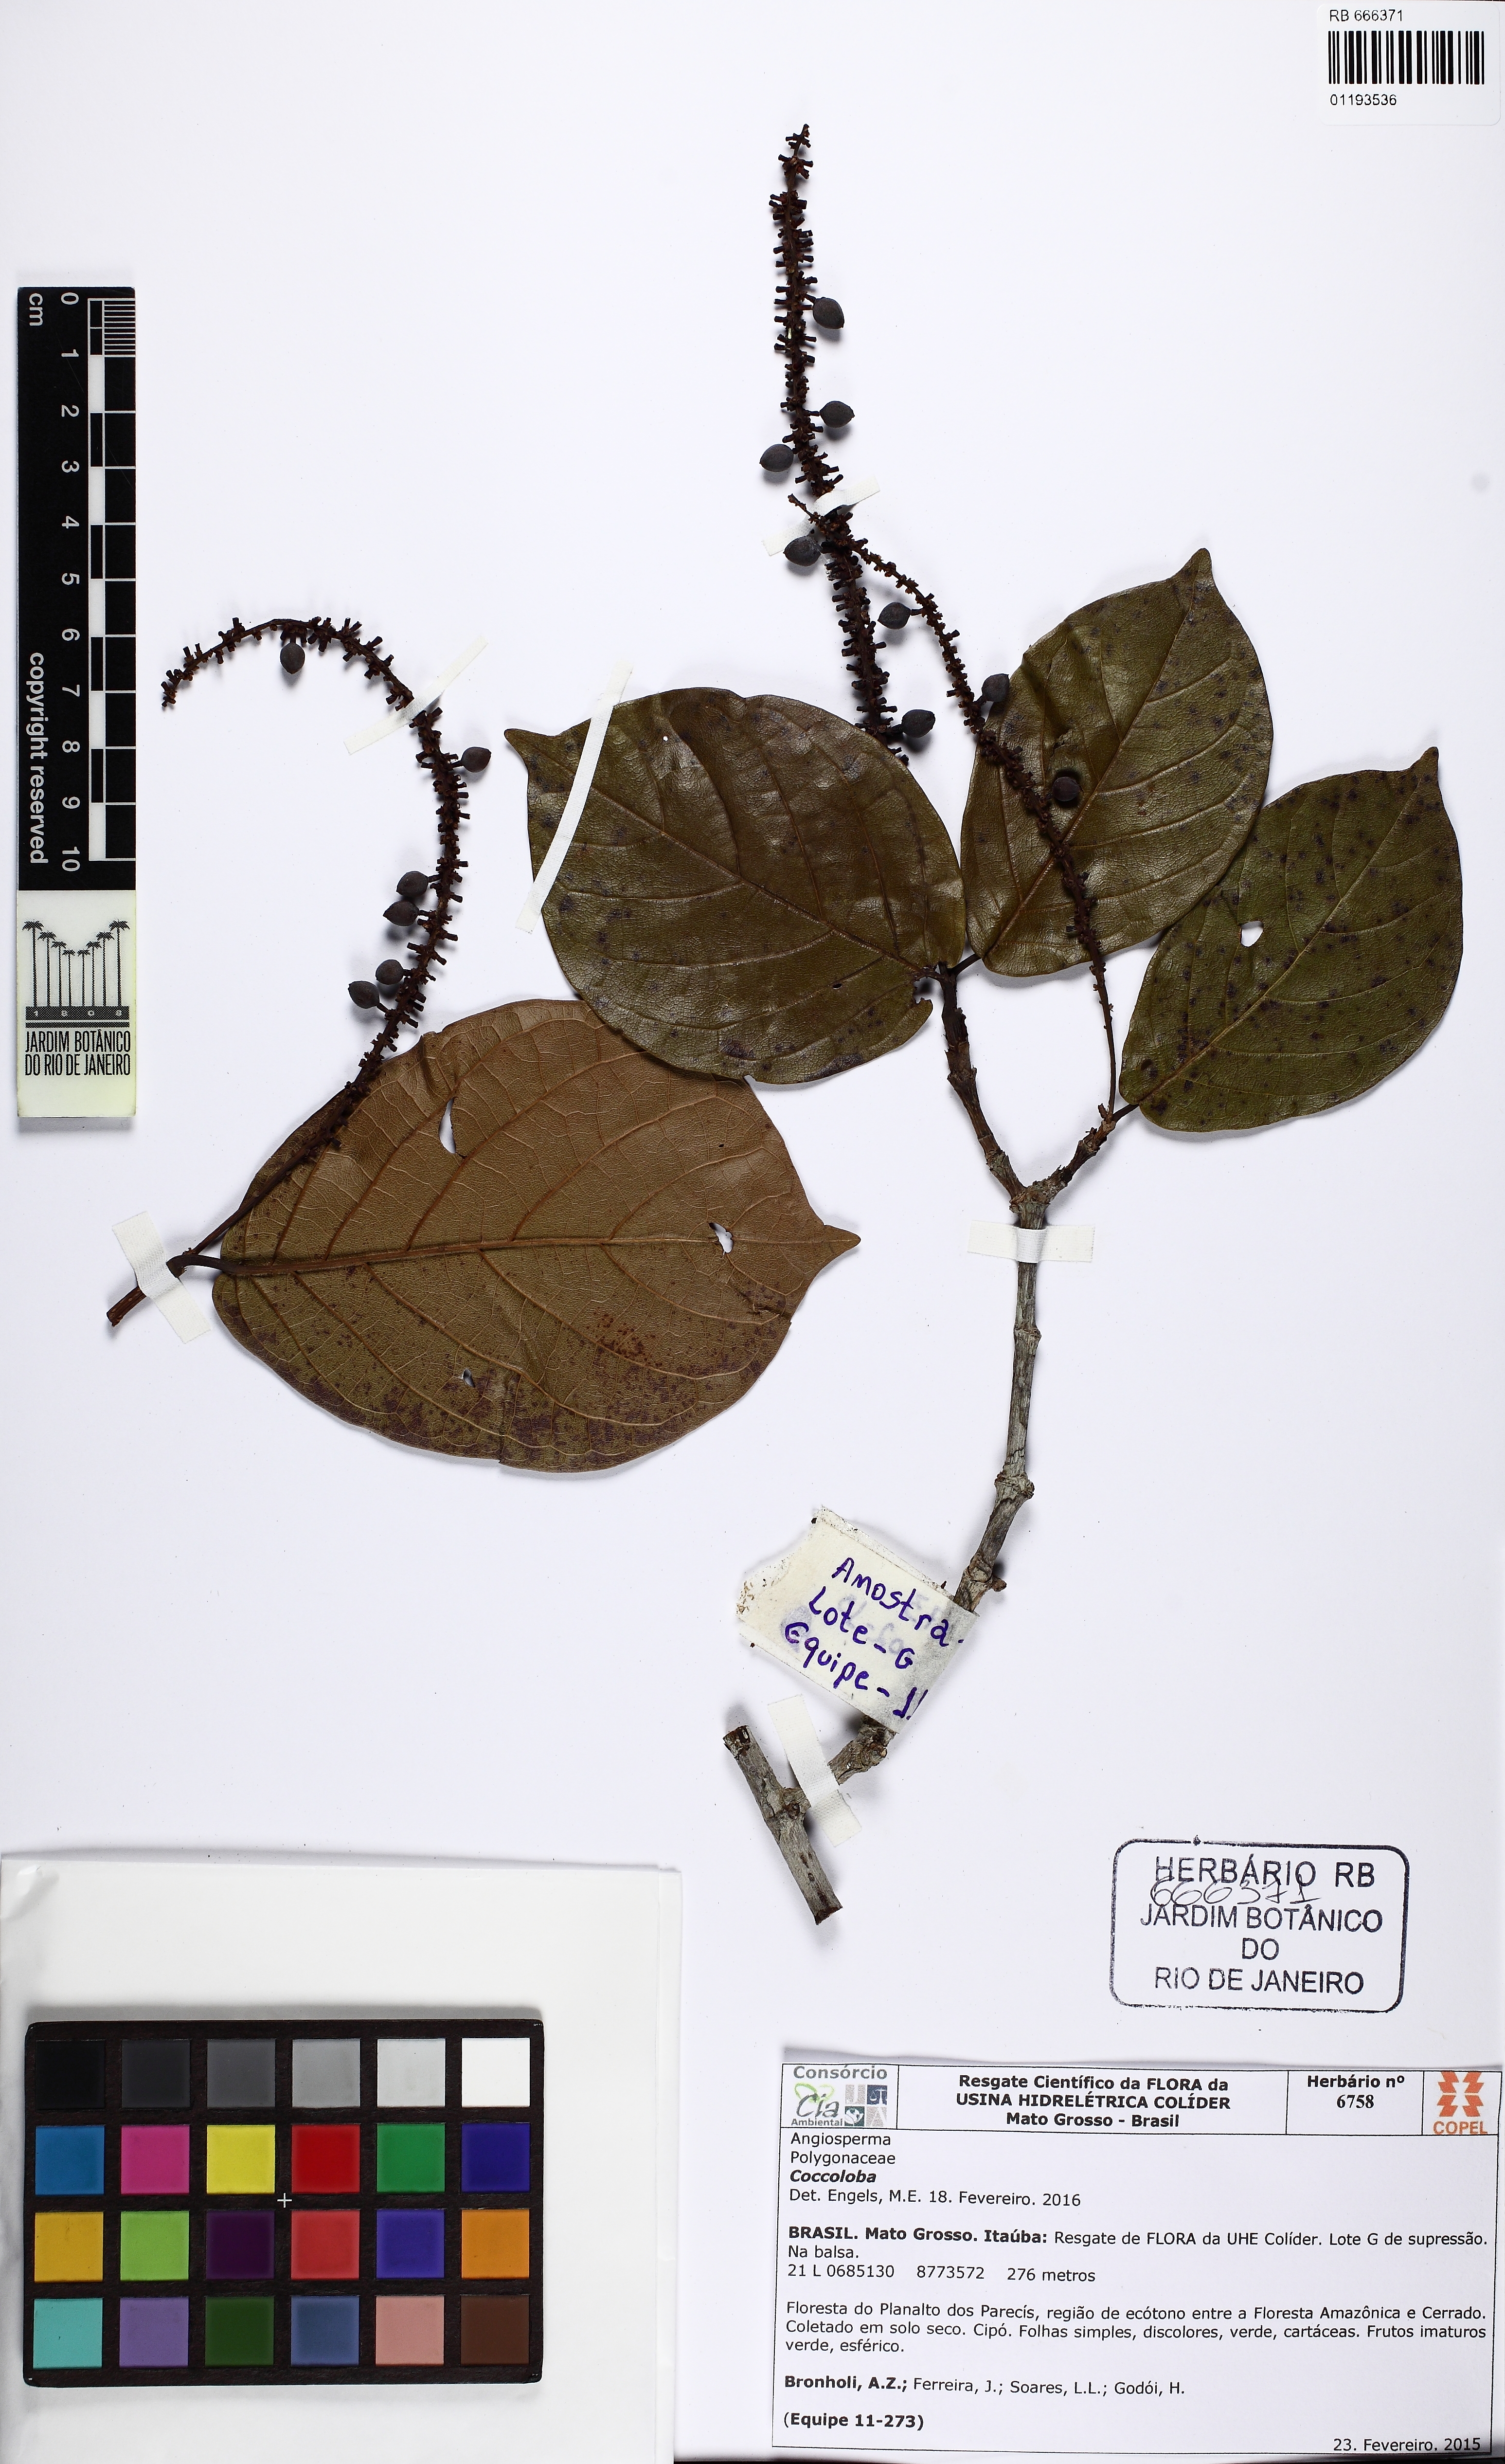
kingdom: Plantae
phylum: Tracheophyta
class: Magnoliopsida
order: Caryophyllales
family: Polygonaceae
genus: Coccoloba
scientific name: Coccoloba
